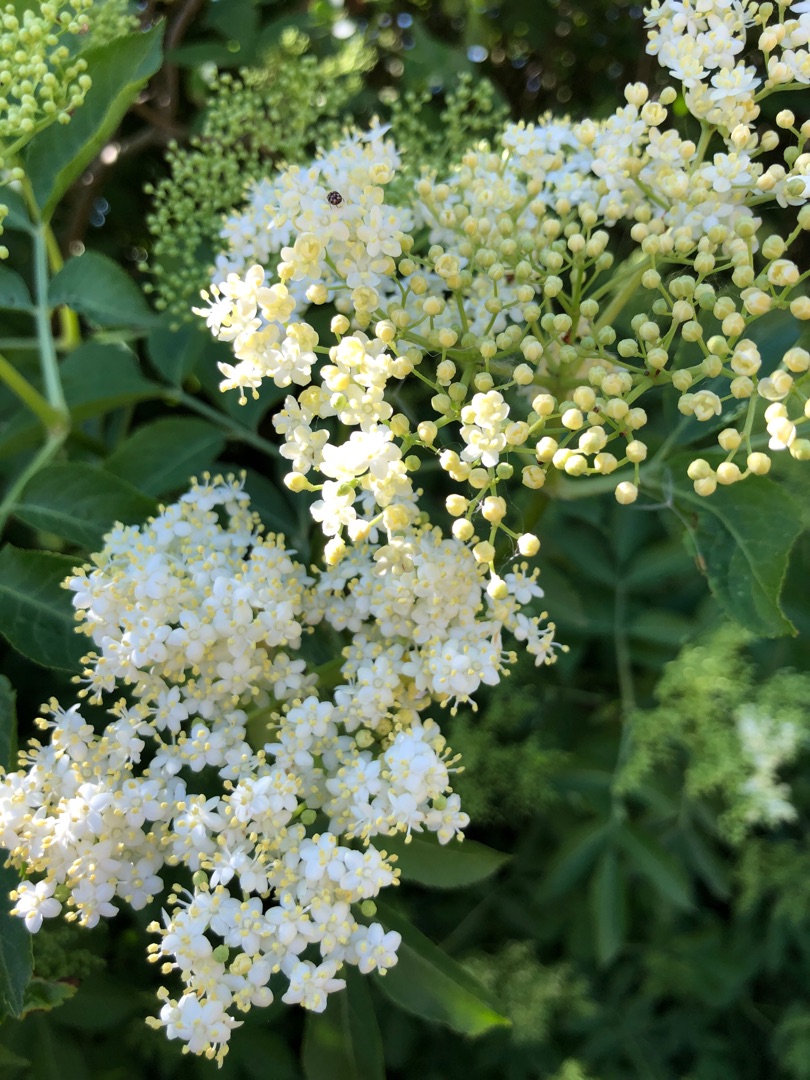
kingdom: Plantae
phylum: Tracheophyta
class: Magnoliopsida
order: Dipsacales
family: Viburnaceae
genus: Sambucus
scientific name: Sambucus nigra
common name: Almindelig hyld
